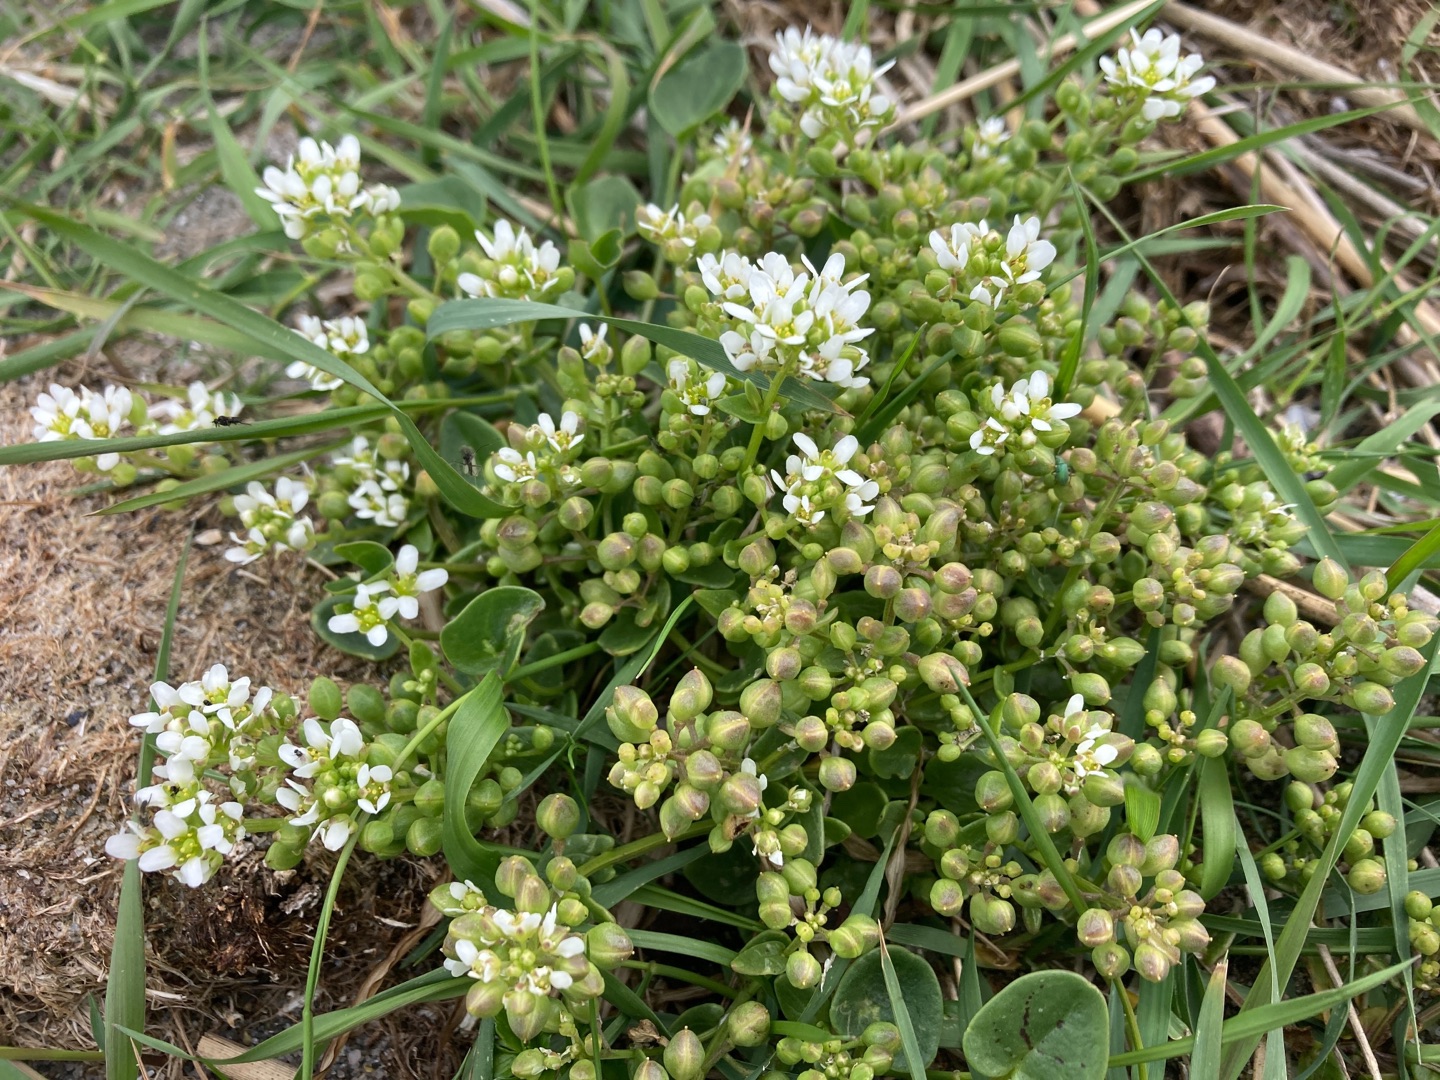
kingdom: Plantae
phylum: Tracheophyta
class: Magnoliopsida
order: Brassicales
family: Brassicaceae
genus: Cochlearia
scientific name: Cochlearia officinalis
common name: Læge-kokleare (underart)
